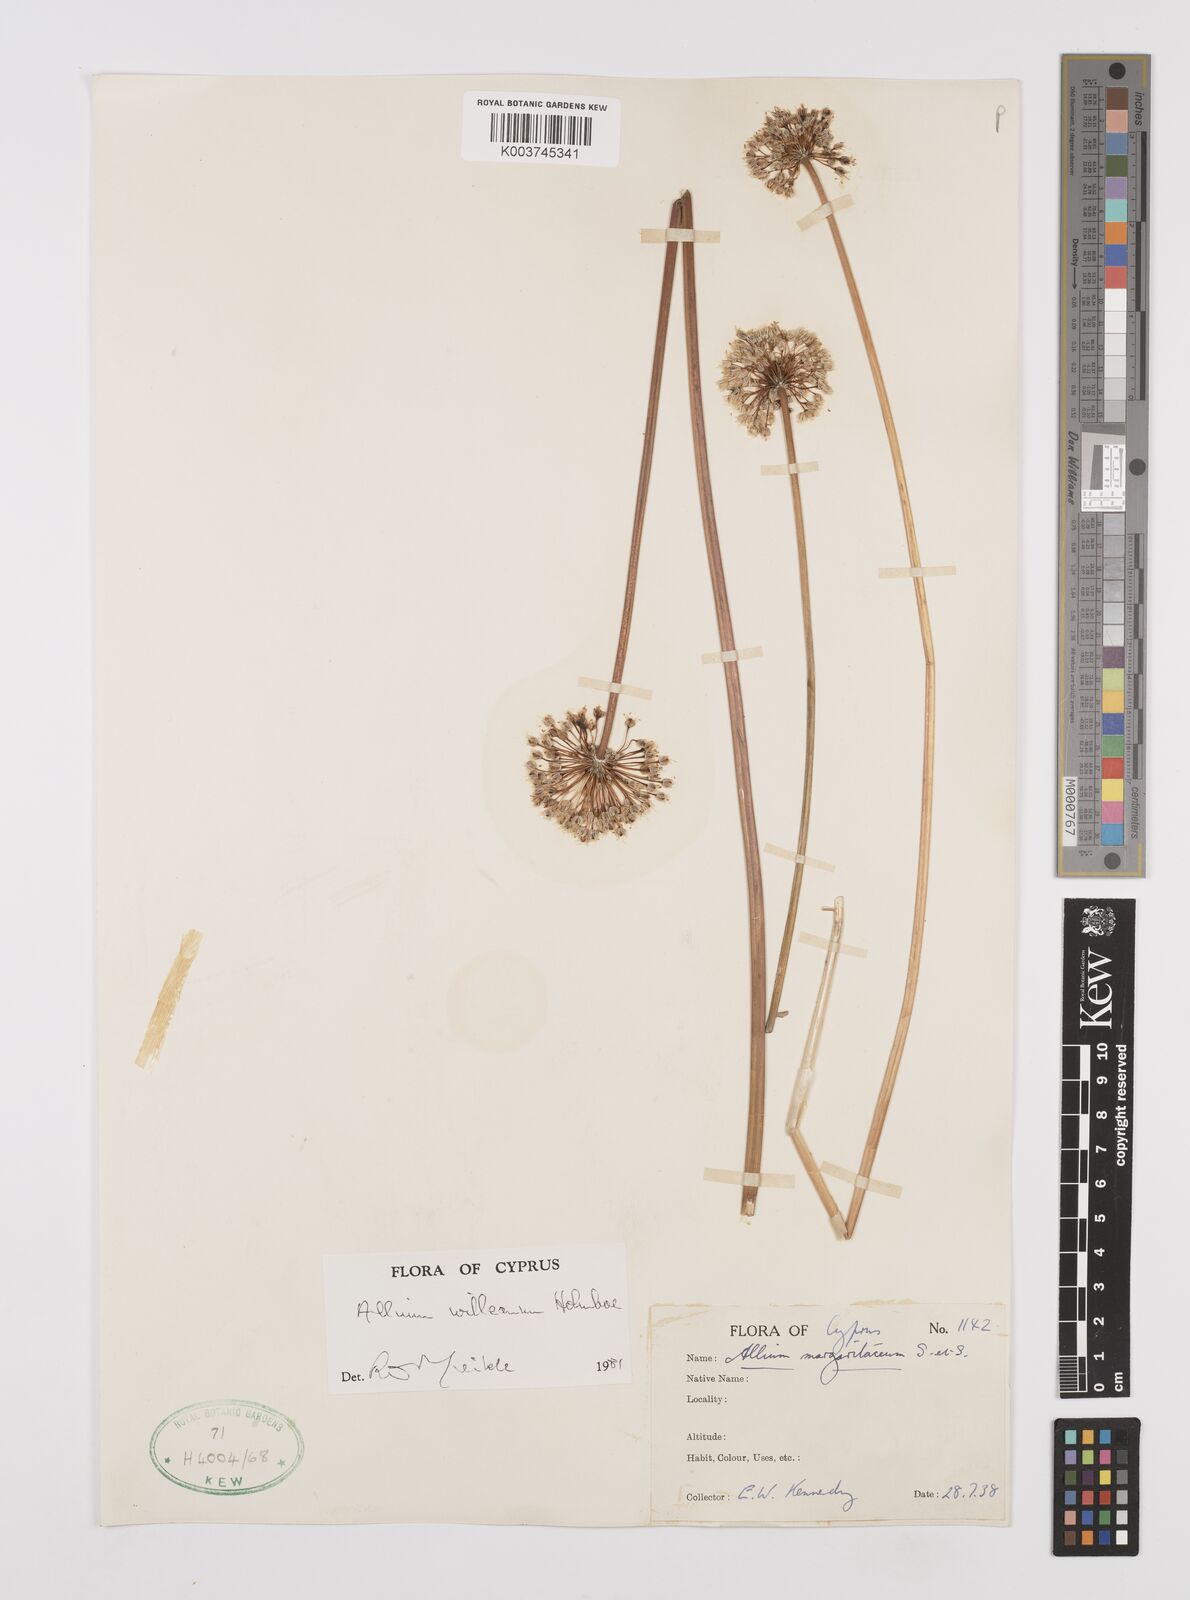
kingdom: Plantae
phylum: Tracheophyta
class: Liliopsida
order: Asparagales
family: Amaryllidaceae
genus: Allium
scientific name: Allium willeanum
